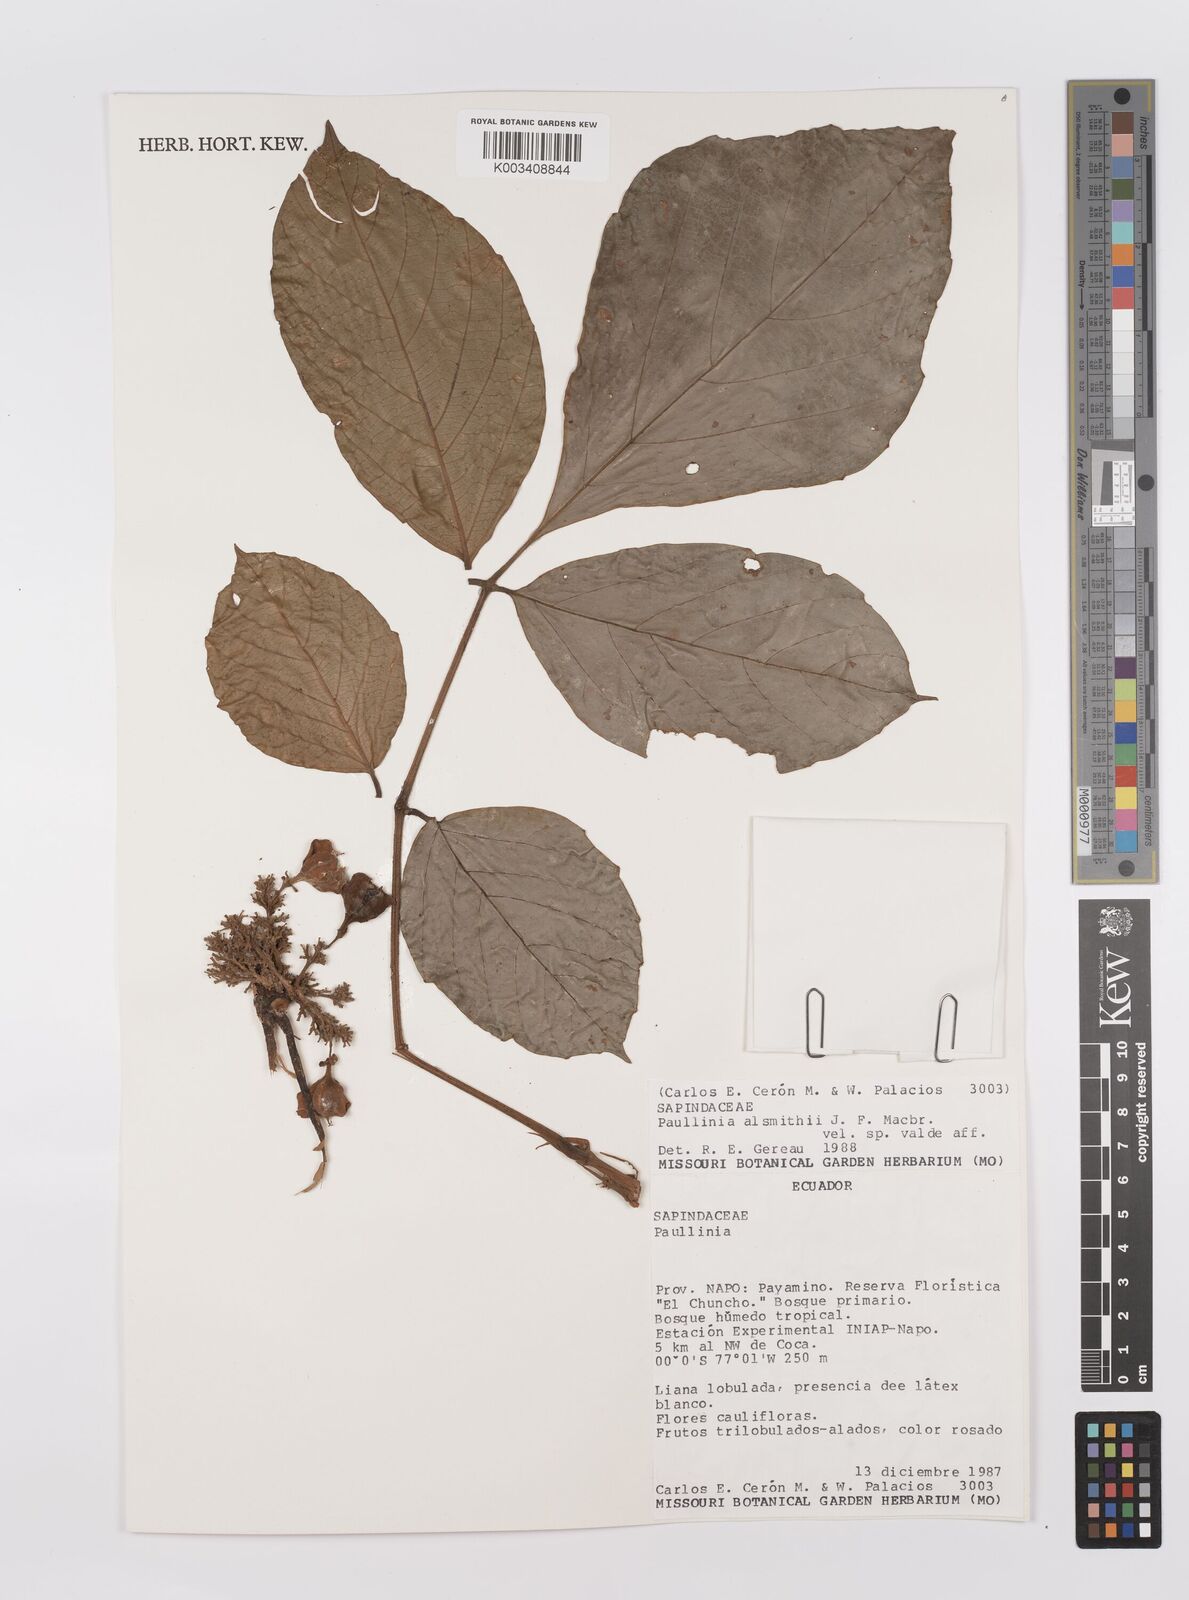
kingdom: Plantae
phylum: Tracheophyta
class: Magnoliopsida
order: Sapindales
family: Sapindaceae
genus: Paullinia
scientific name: Paullinia alsmithii
